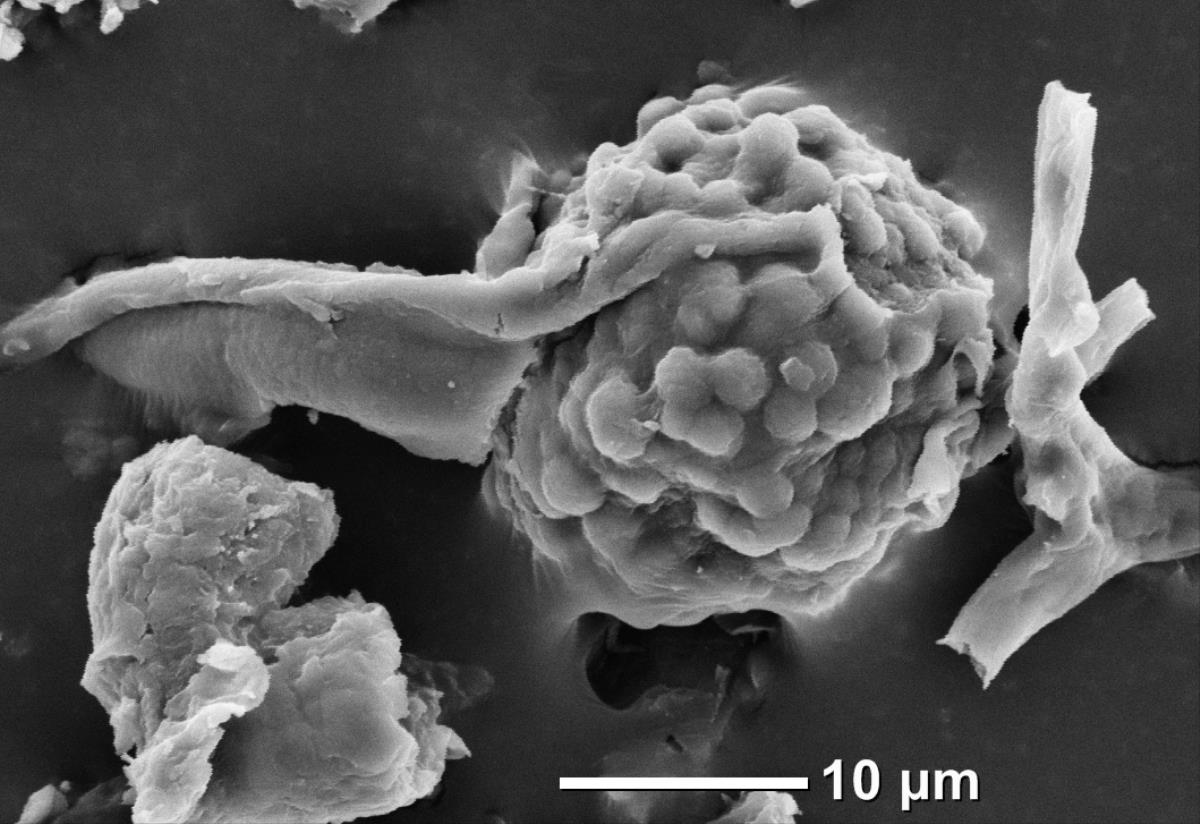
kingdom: Fungi
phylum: Ascomycota
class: Pezizomycetes
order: Pezizales
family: Tuberaceae
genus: Dingleya
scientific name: Dingleya phymatodea
